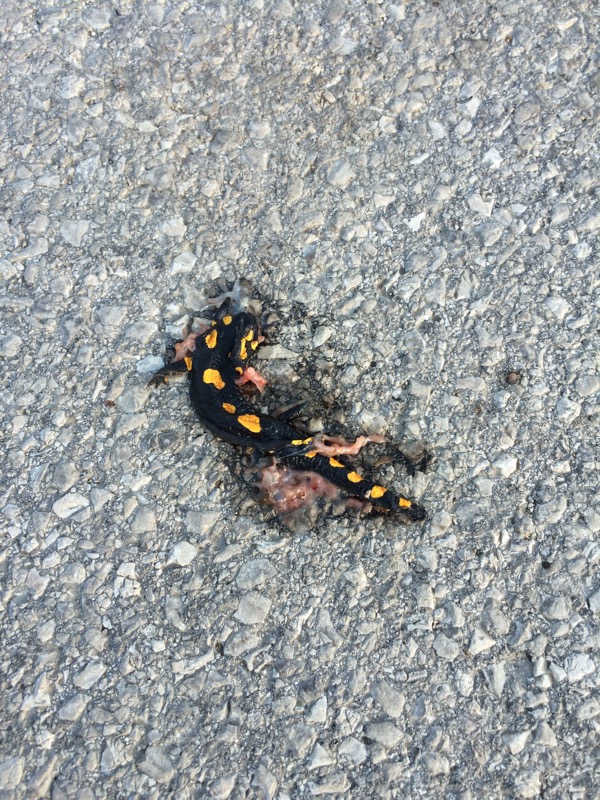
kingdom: Animalia
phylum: Chordata
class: Amphibia
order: Caudata
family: Salamandridae
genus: Salamandra
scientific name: Salamandra salamandra
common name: Fire salamander
